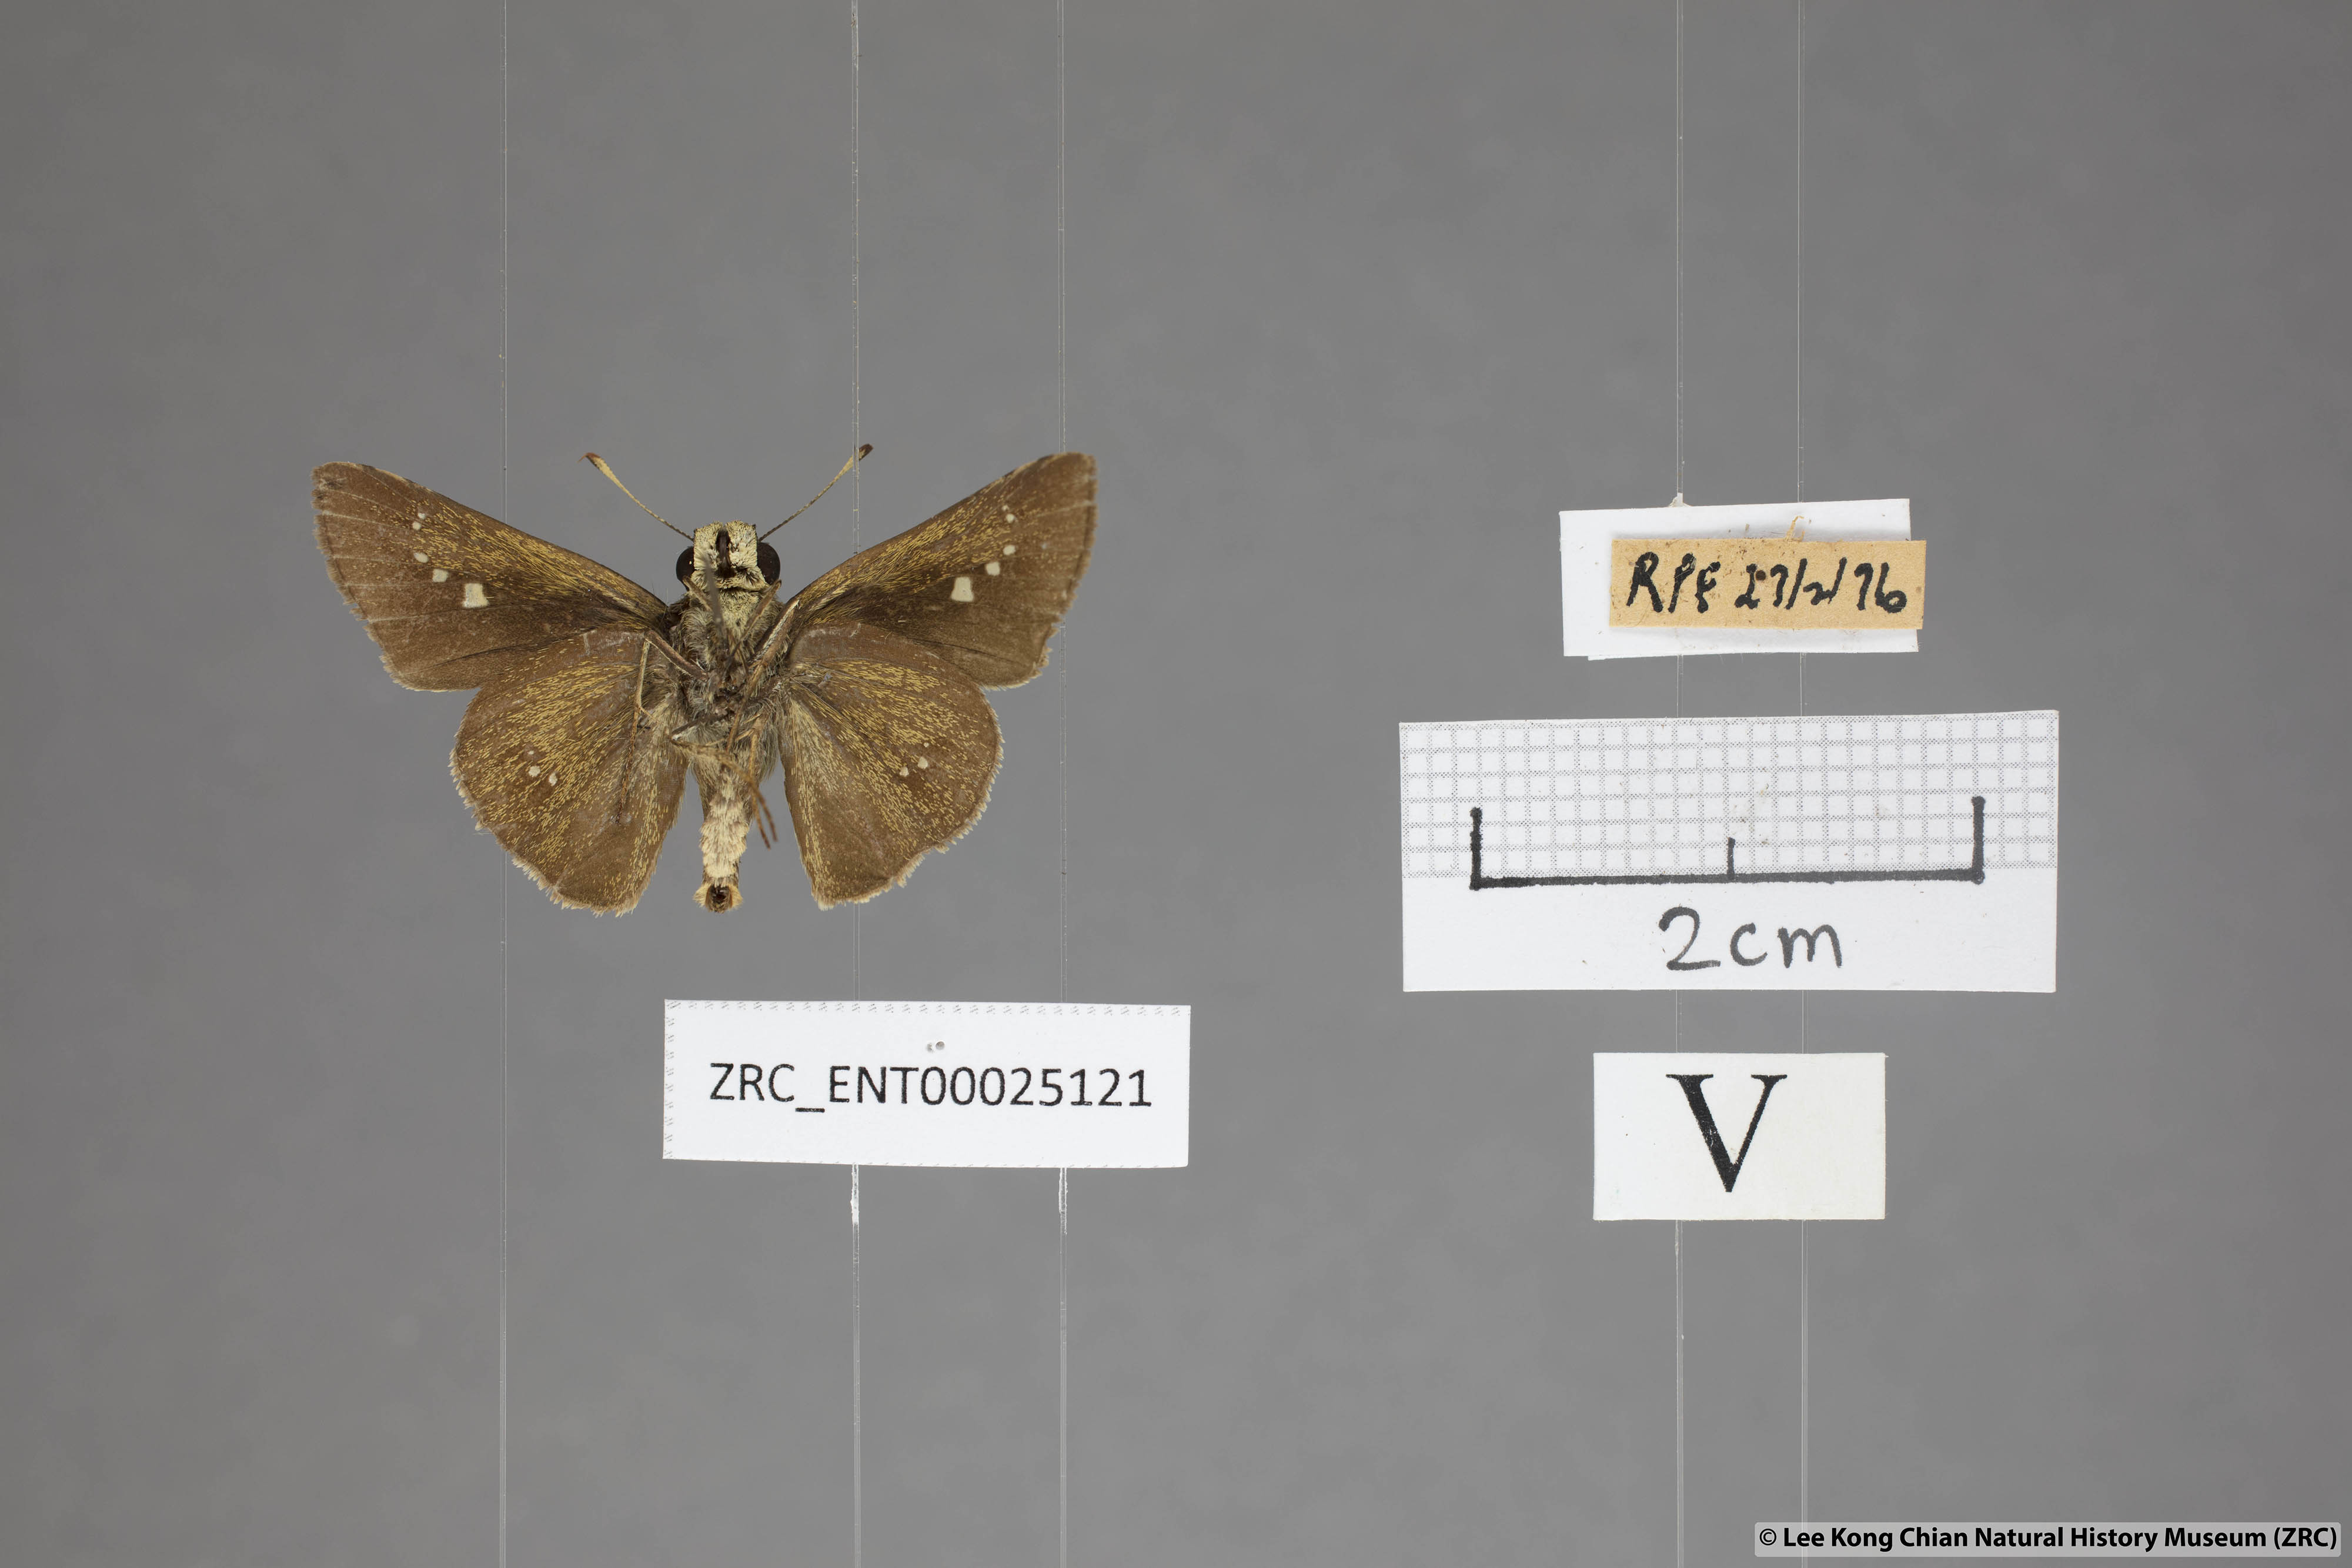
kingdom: Animalia
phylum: Arthropoda
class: Insecta
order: Lepidoptera
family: Hesperiidae
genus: Parnara
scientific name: Parnara apostata
